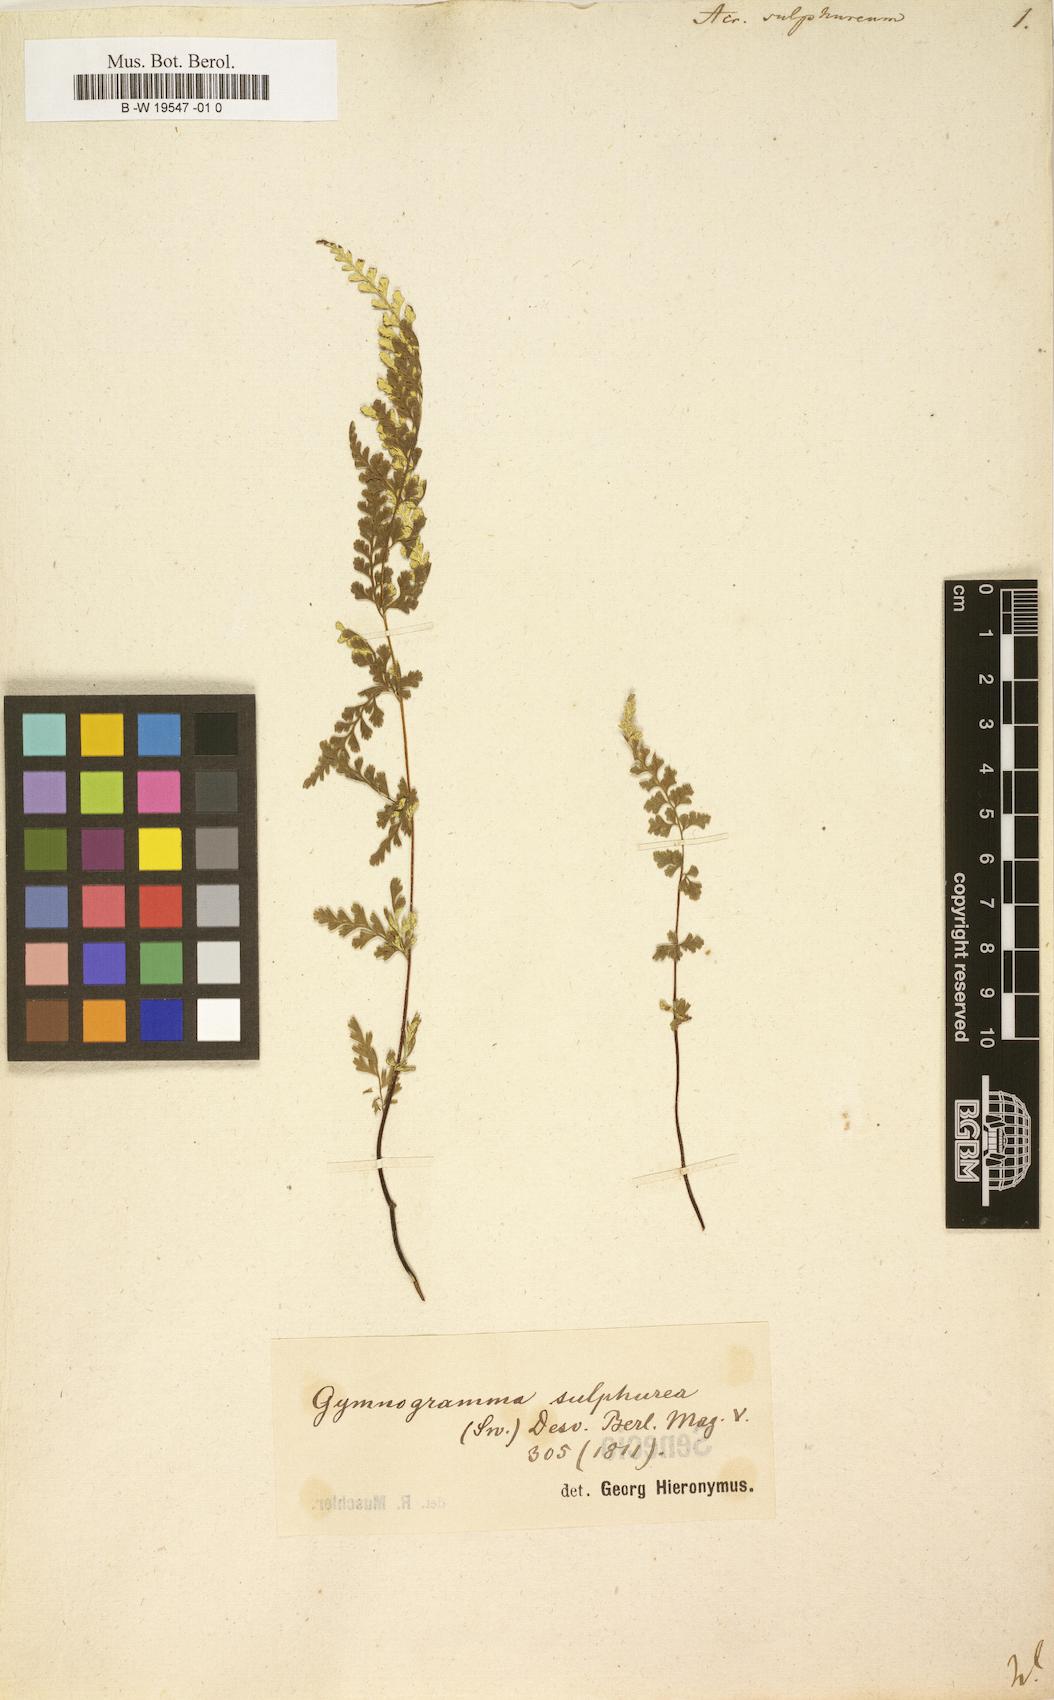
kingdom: Plantae
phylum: Tracheophyta
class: Polypodiopsida
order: Polypodiales
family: Pteridaceae
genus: Pityrogramma
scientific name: Pityrogramma sulphurea
